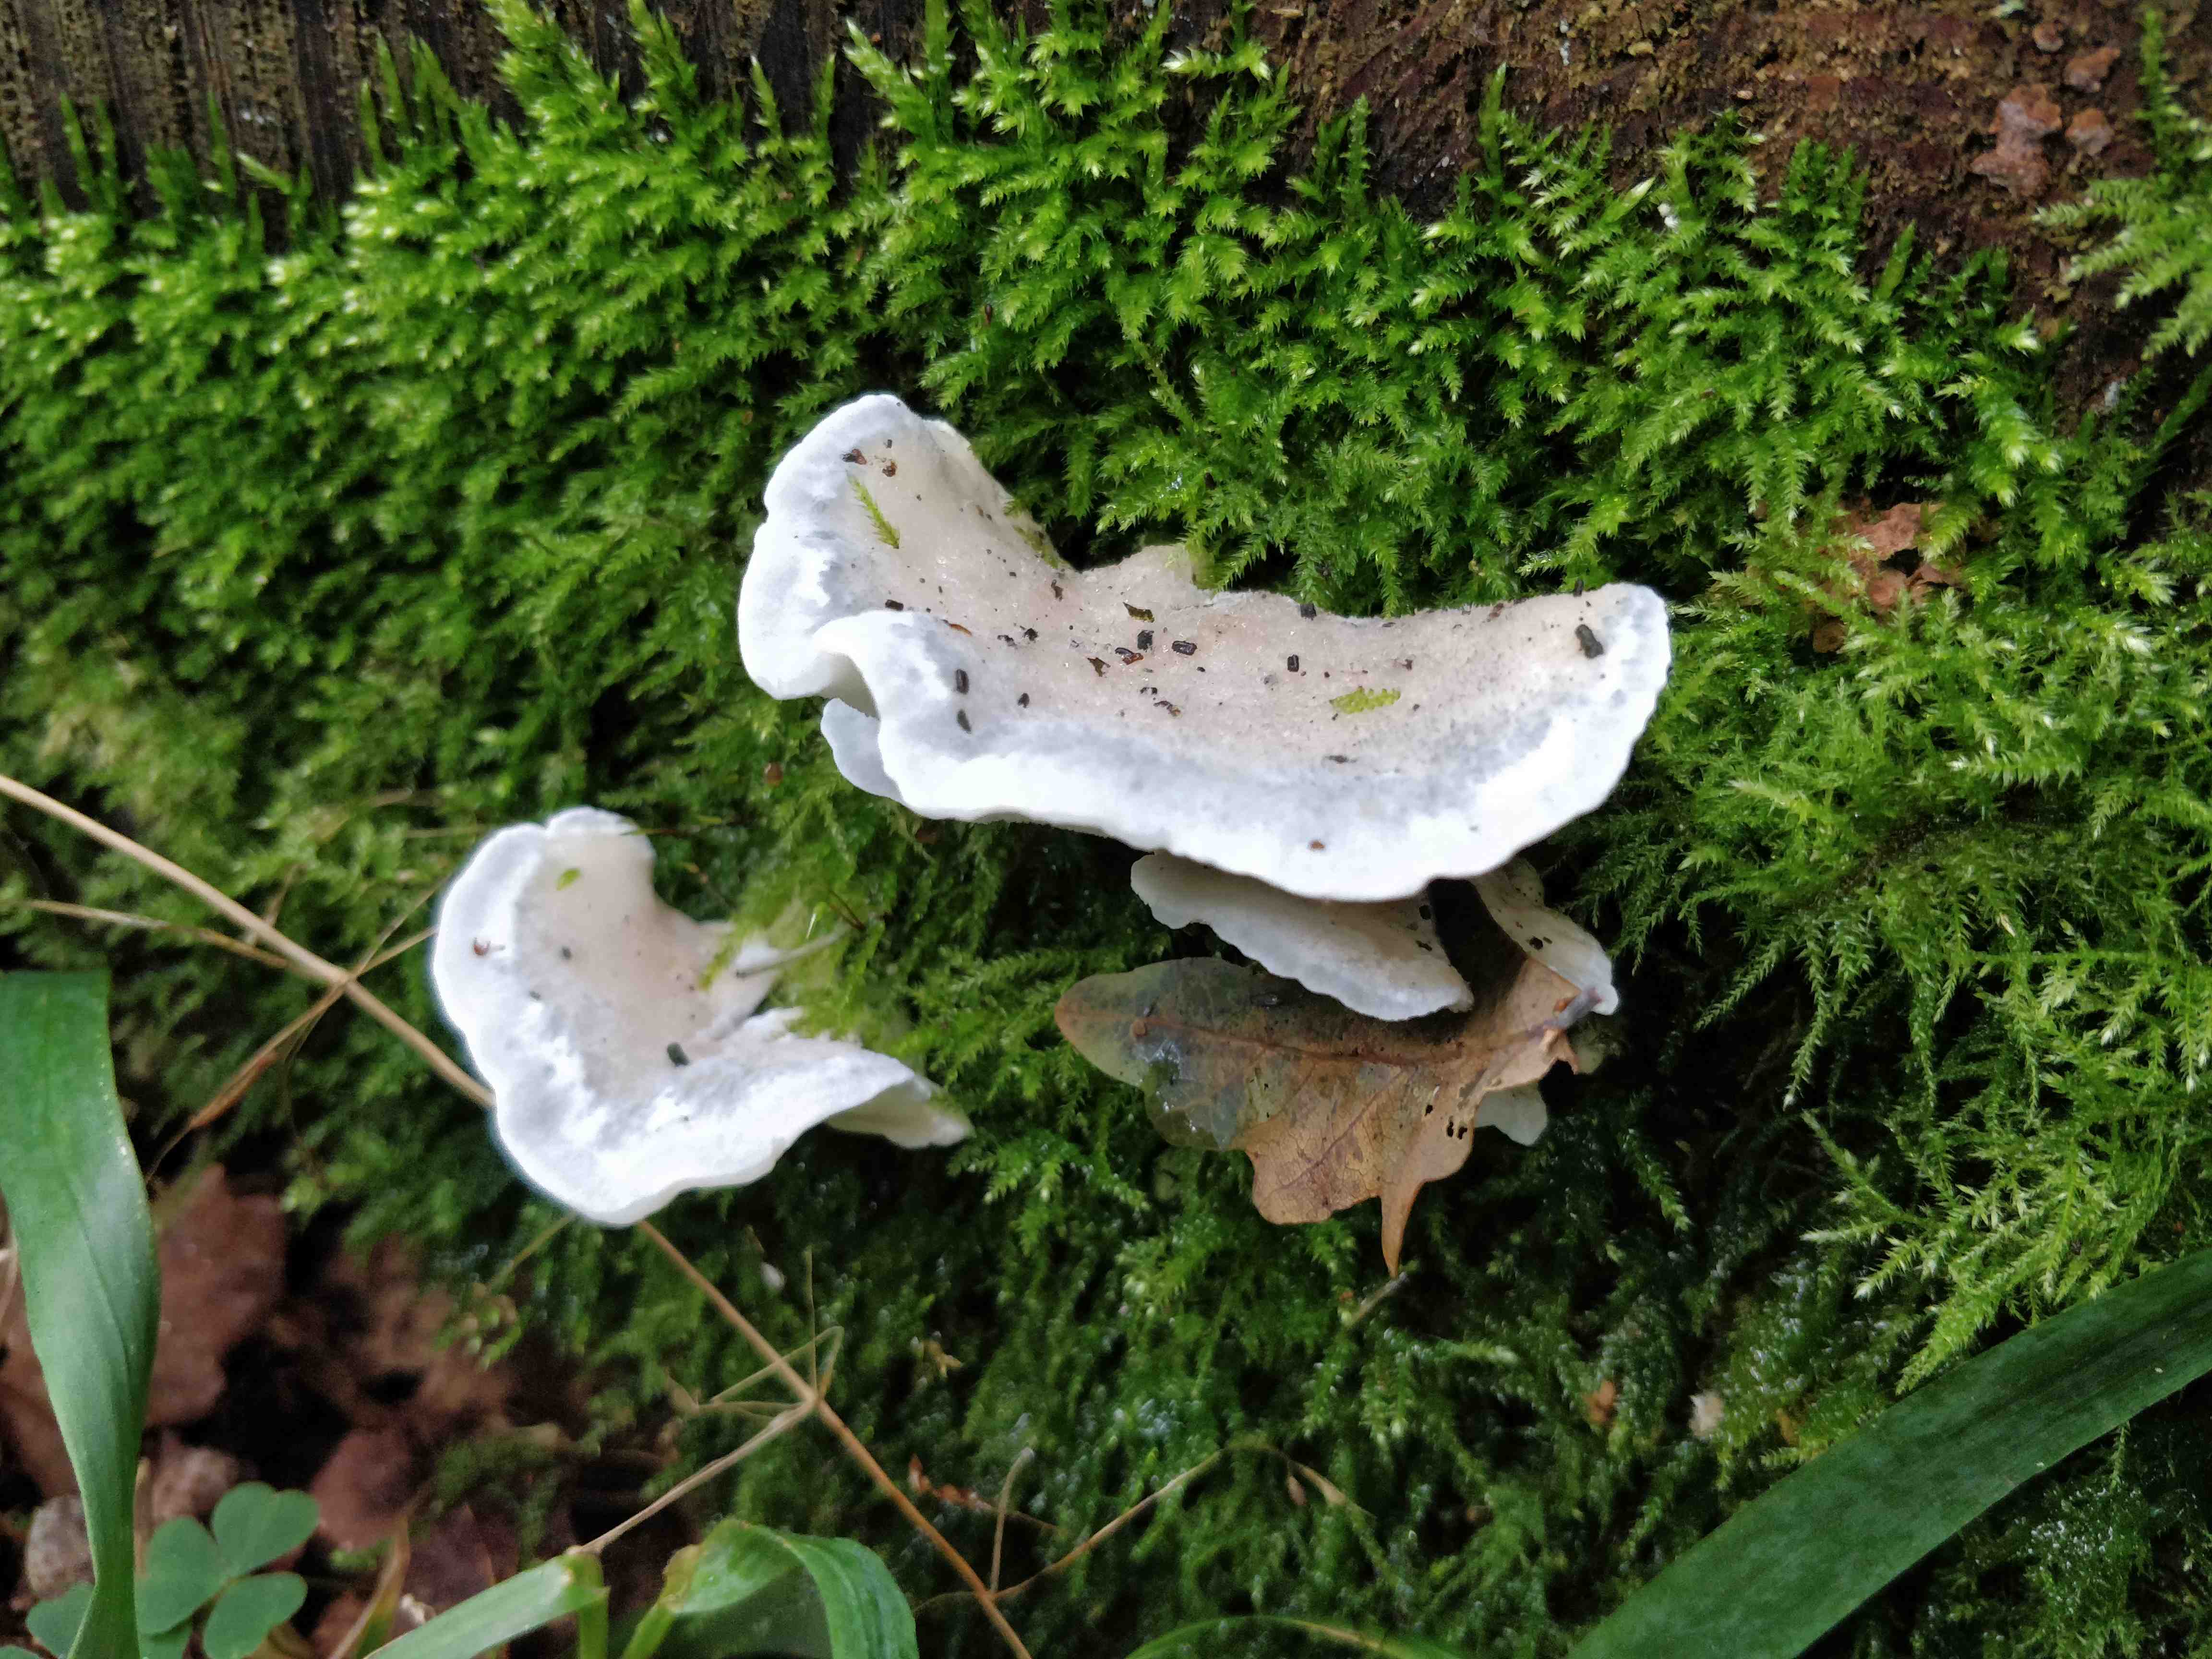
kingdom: Fungi
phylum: Basidiomycota
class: Agaricomycetes
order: Polyporales
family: Polyporaceae
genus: Cyanosporus
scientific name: Cyanosporus cyanescens
